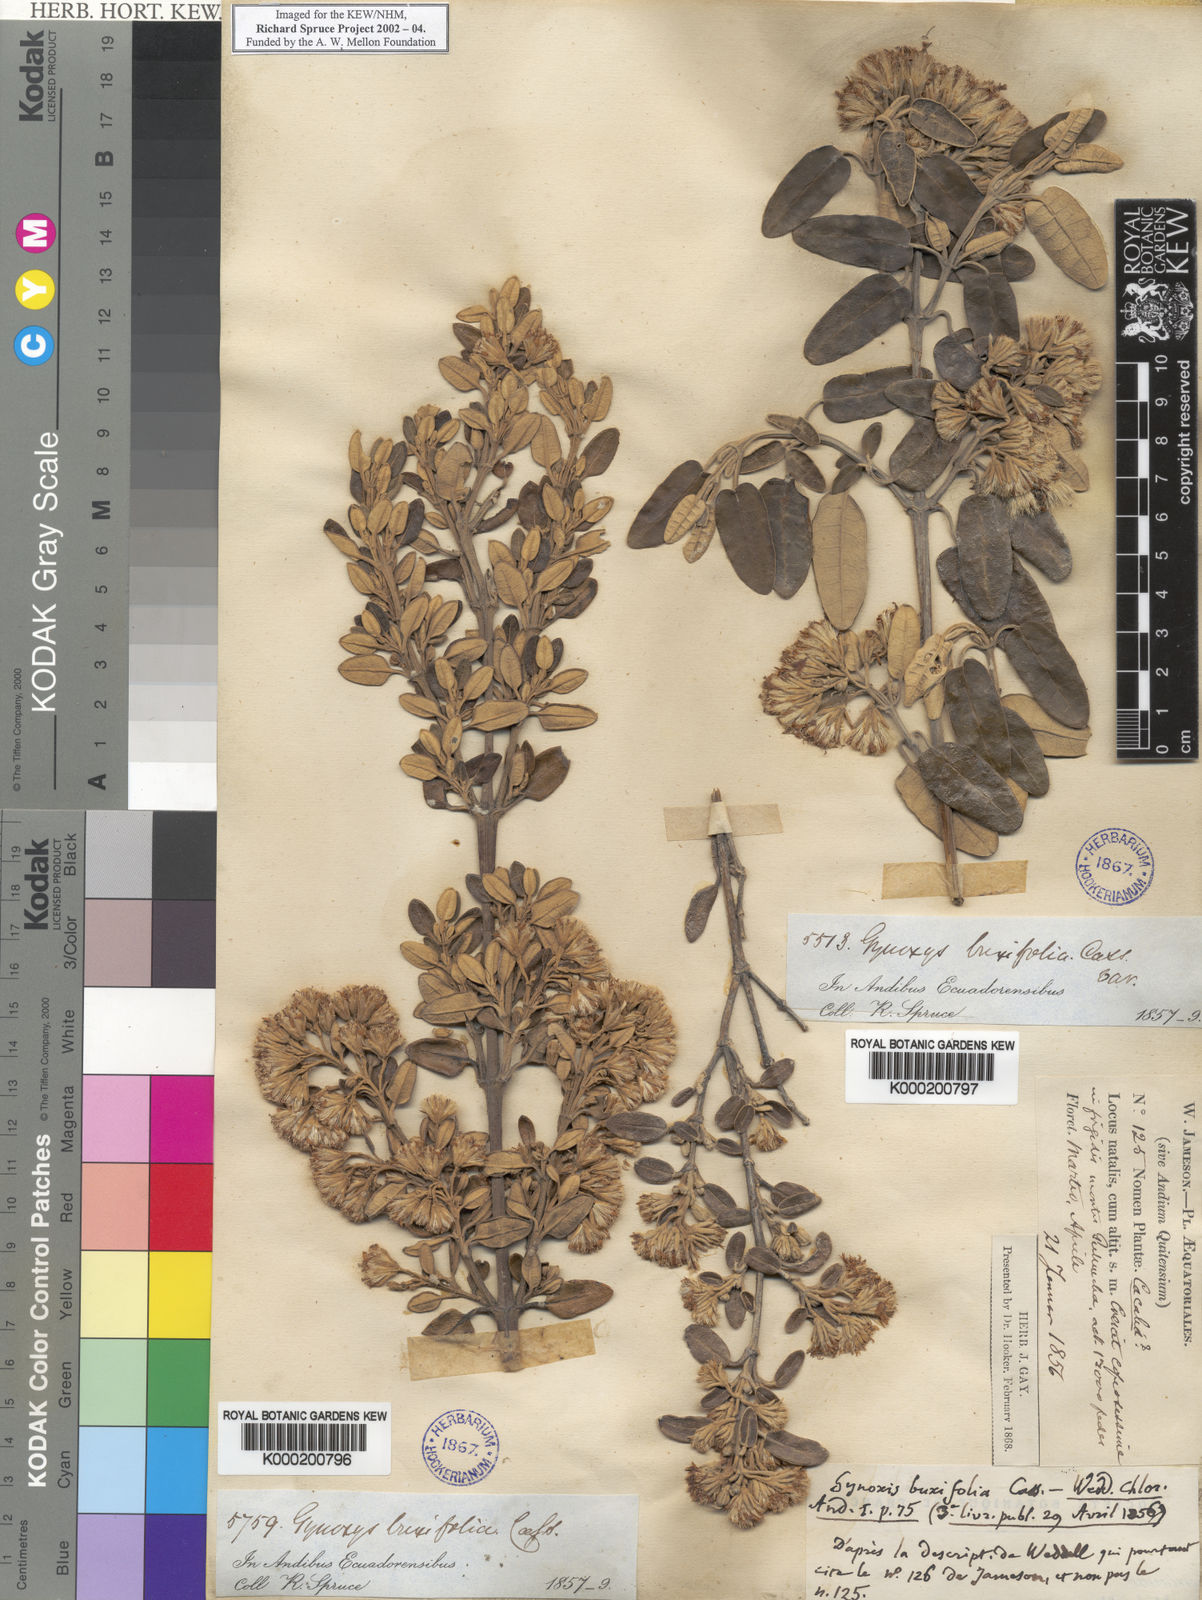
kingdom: Plantae
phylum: Tracheophyta
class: Magnoliopsida
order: Asterales
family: Asteraceae
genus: Gynoxys
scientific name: Gynoxys buxifolia
